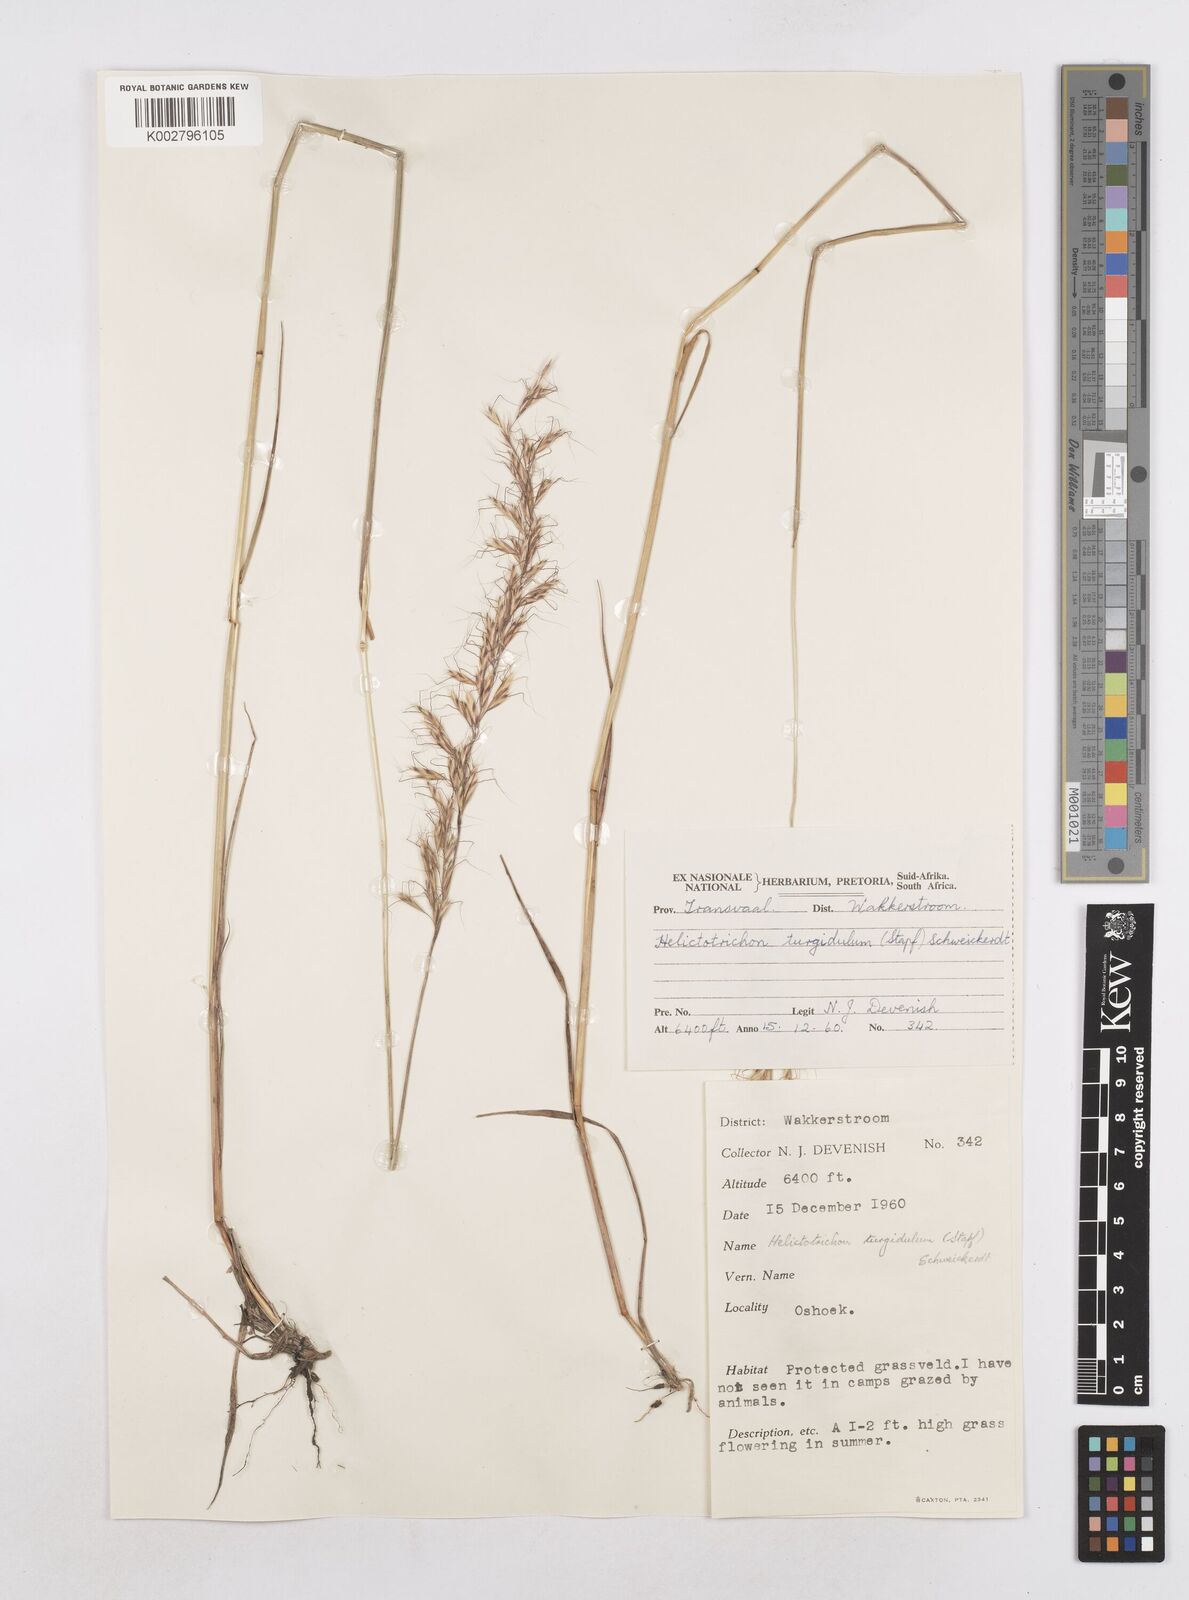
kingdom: Plantae
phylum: Tracheophyta
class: Liliopsida
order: Poales
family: Poaceae
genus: Trisetopsis
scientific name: Trisetopsis imberbis
